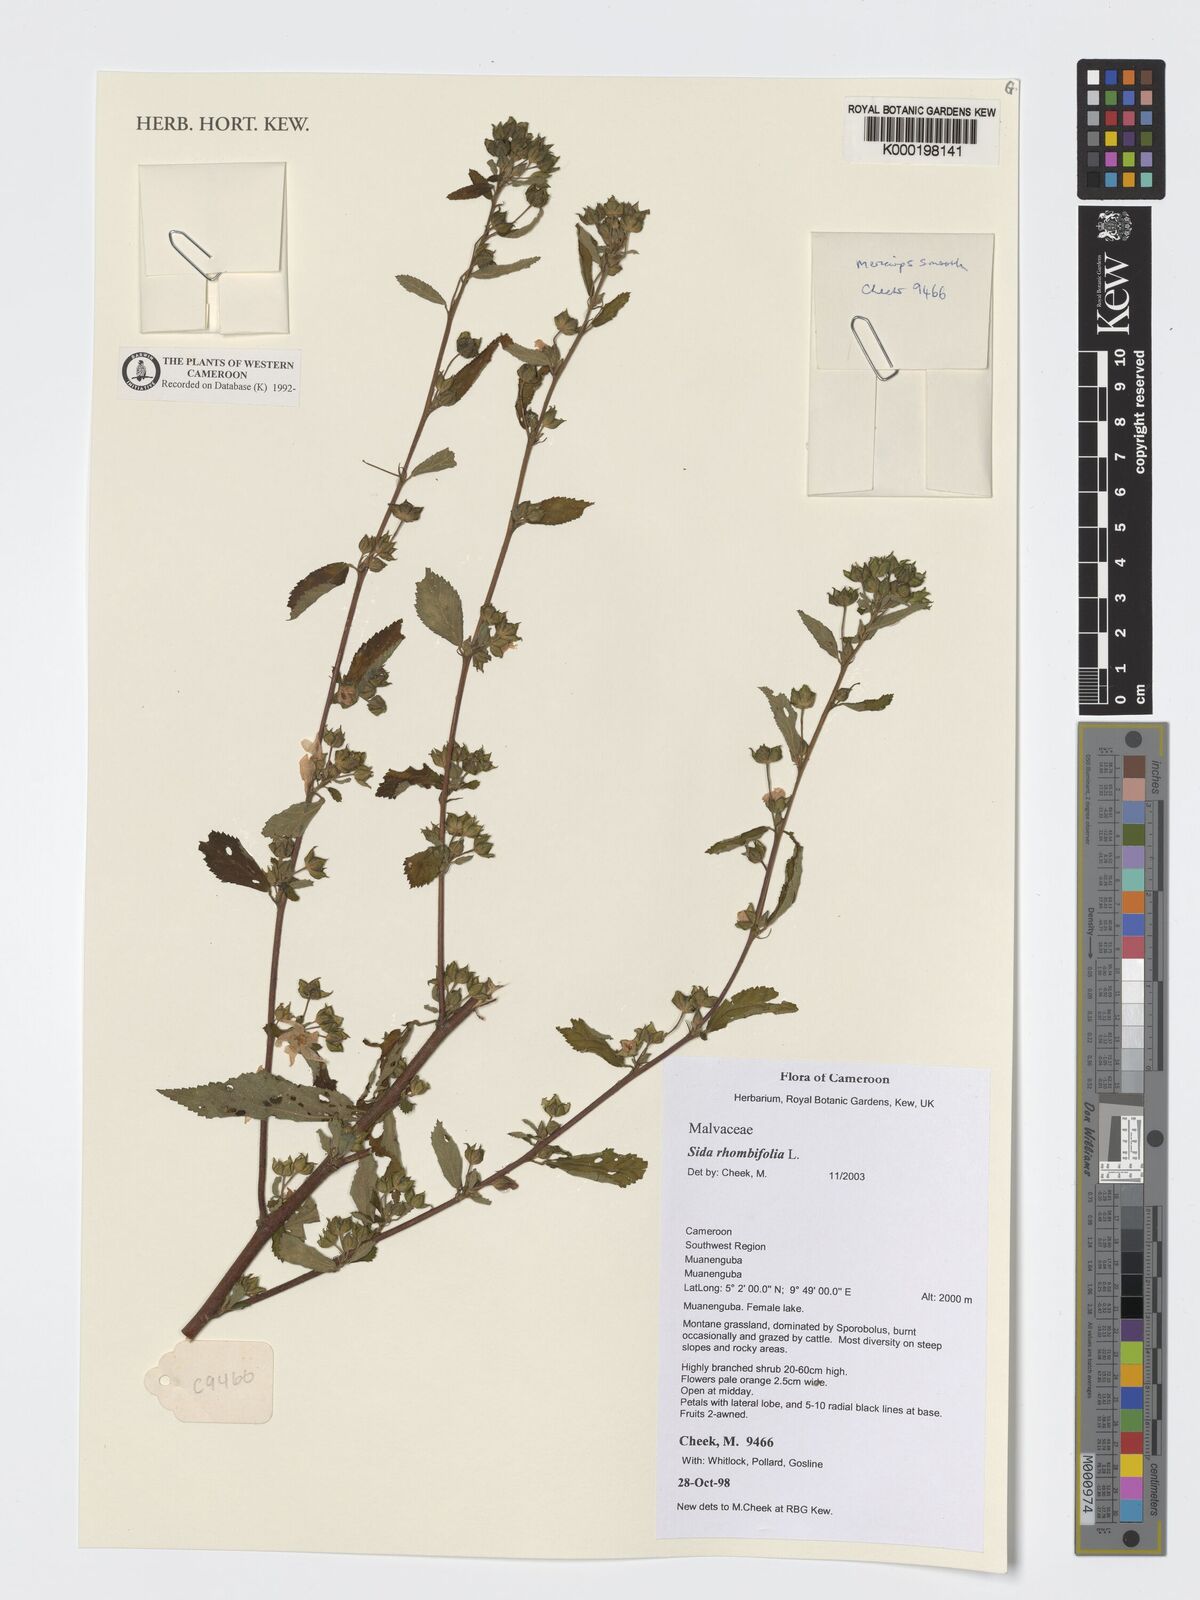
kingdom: Plantae
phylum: Tracheophyta
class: Magnoliopsida
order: Malvales
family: Malvaceae
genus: Sida
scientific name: Sida rhombifolia
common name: Queensland-hemp
